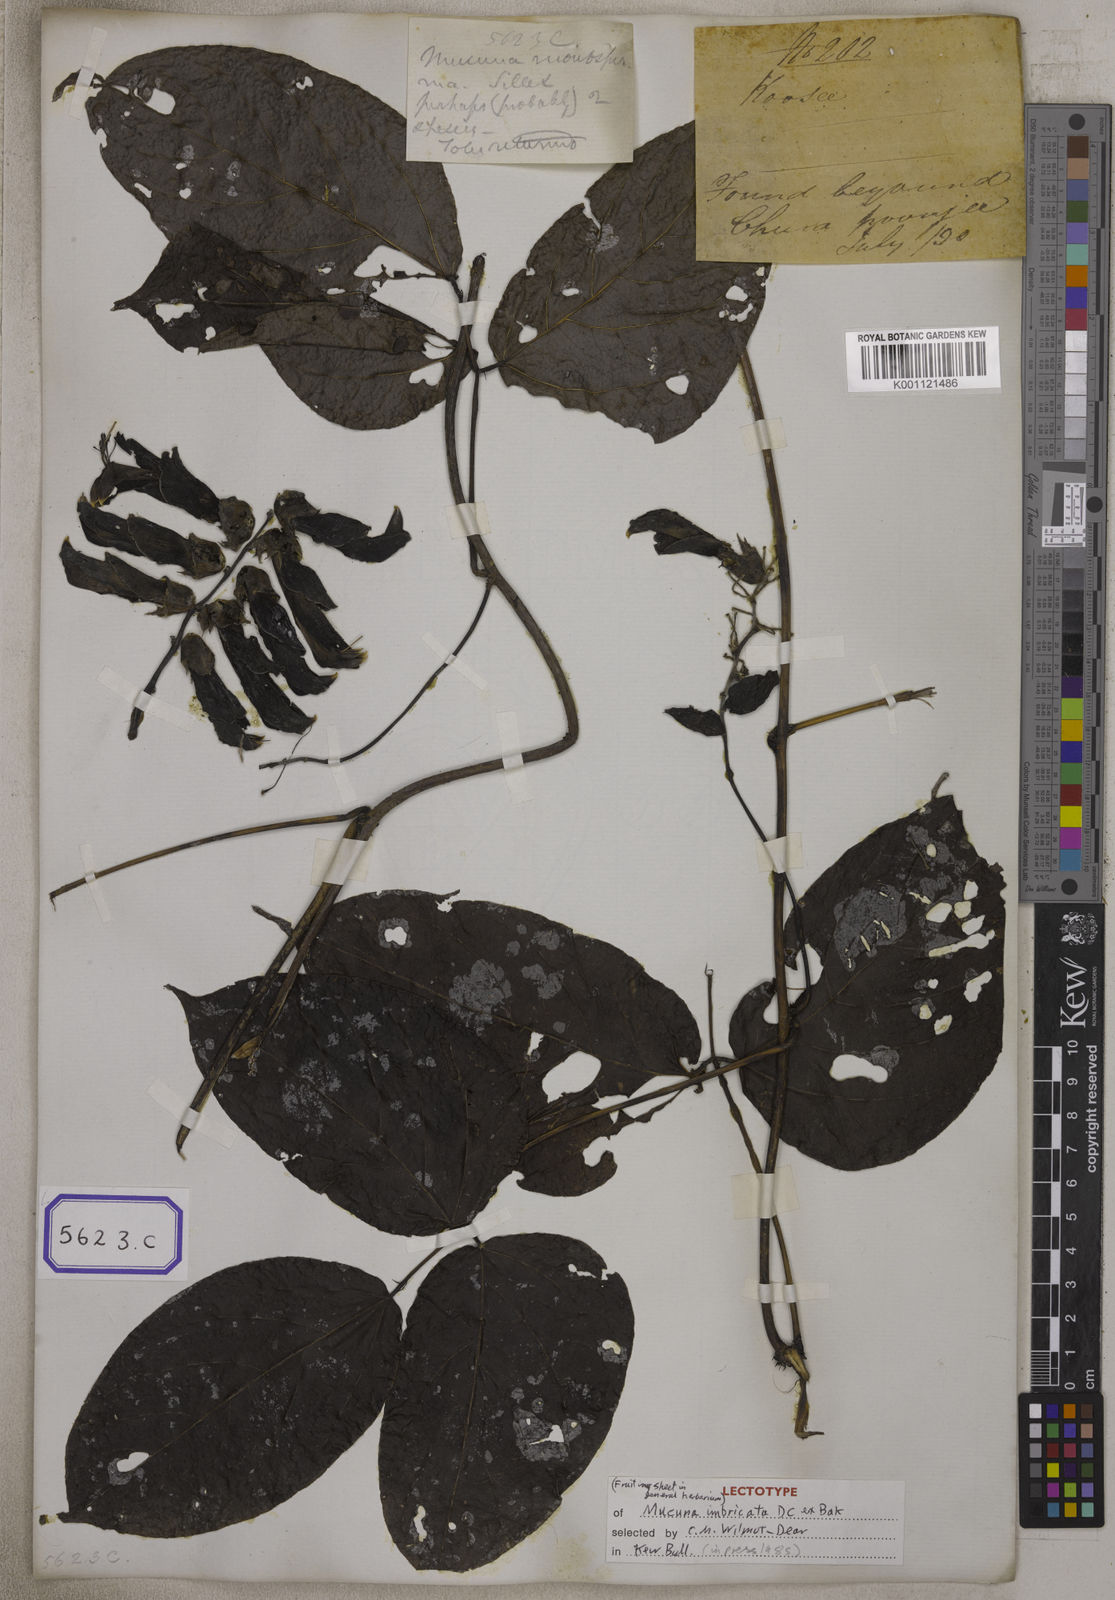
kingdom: Plantae
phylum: Tracheophyta
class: Magnoliopsida
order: Fabales
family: Fabaceae
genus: Mucuna
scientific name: Mucuna
